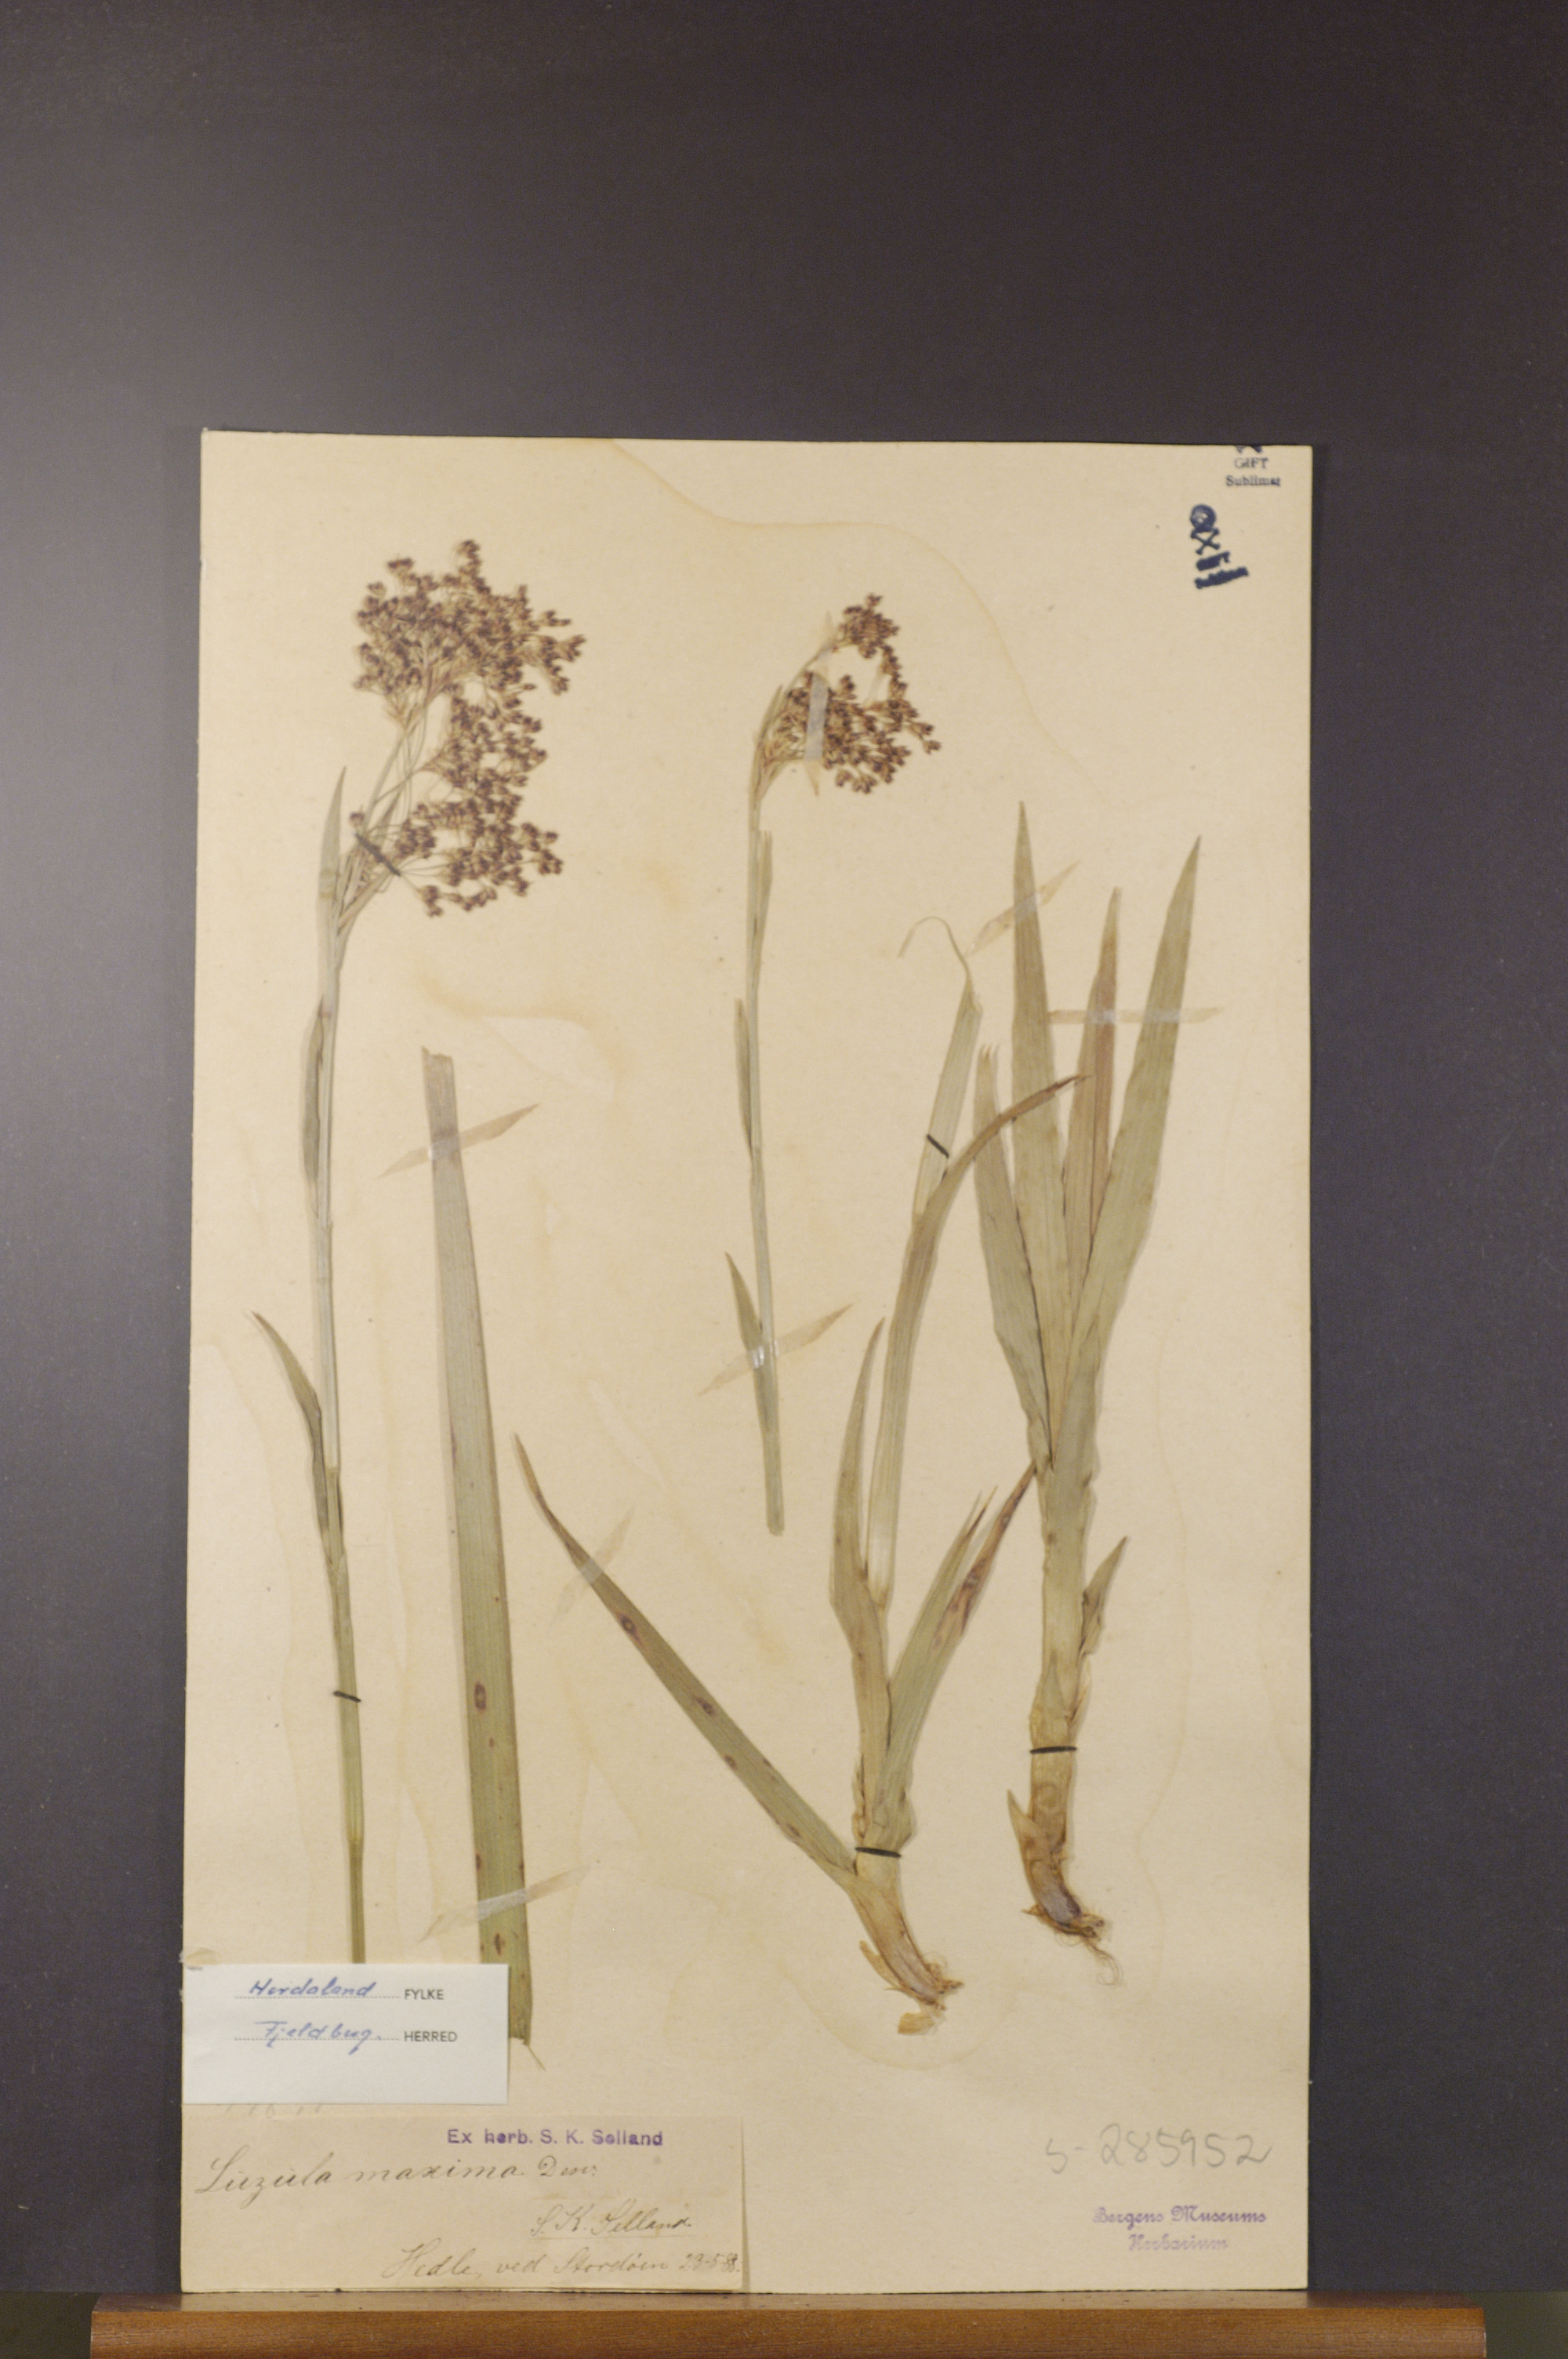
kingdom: Plantae
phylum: Tracheophyta
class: Liliopsida
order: Poales
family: Juncaceae
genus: Luzula
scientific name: Luzula sylvatica
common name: Great wood-rush
